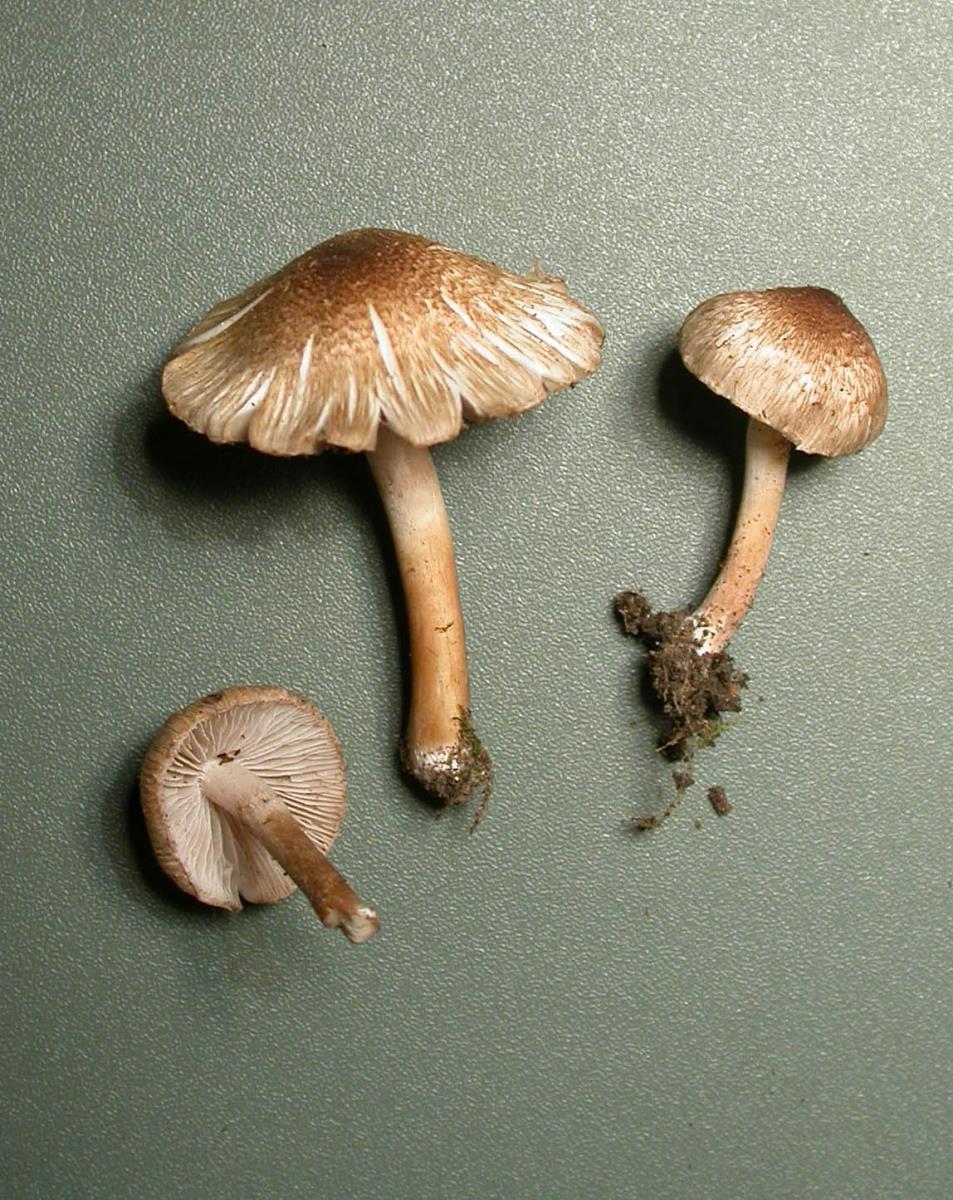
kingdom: Fungi
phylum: Basidiomycota
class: Agaricomycetes
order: Agaricales
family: Inocybaceae
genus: Inocybe
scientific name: Inocybe curvipes
